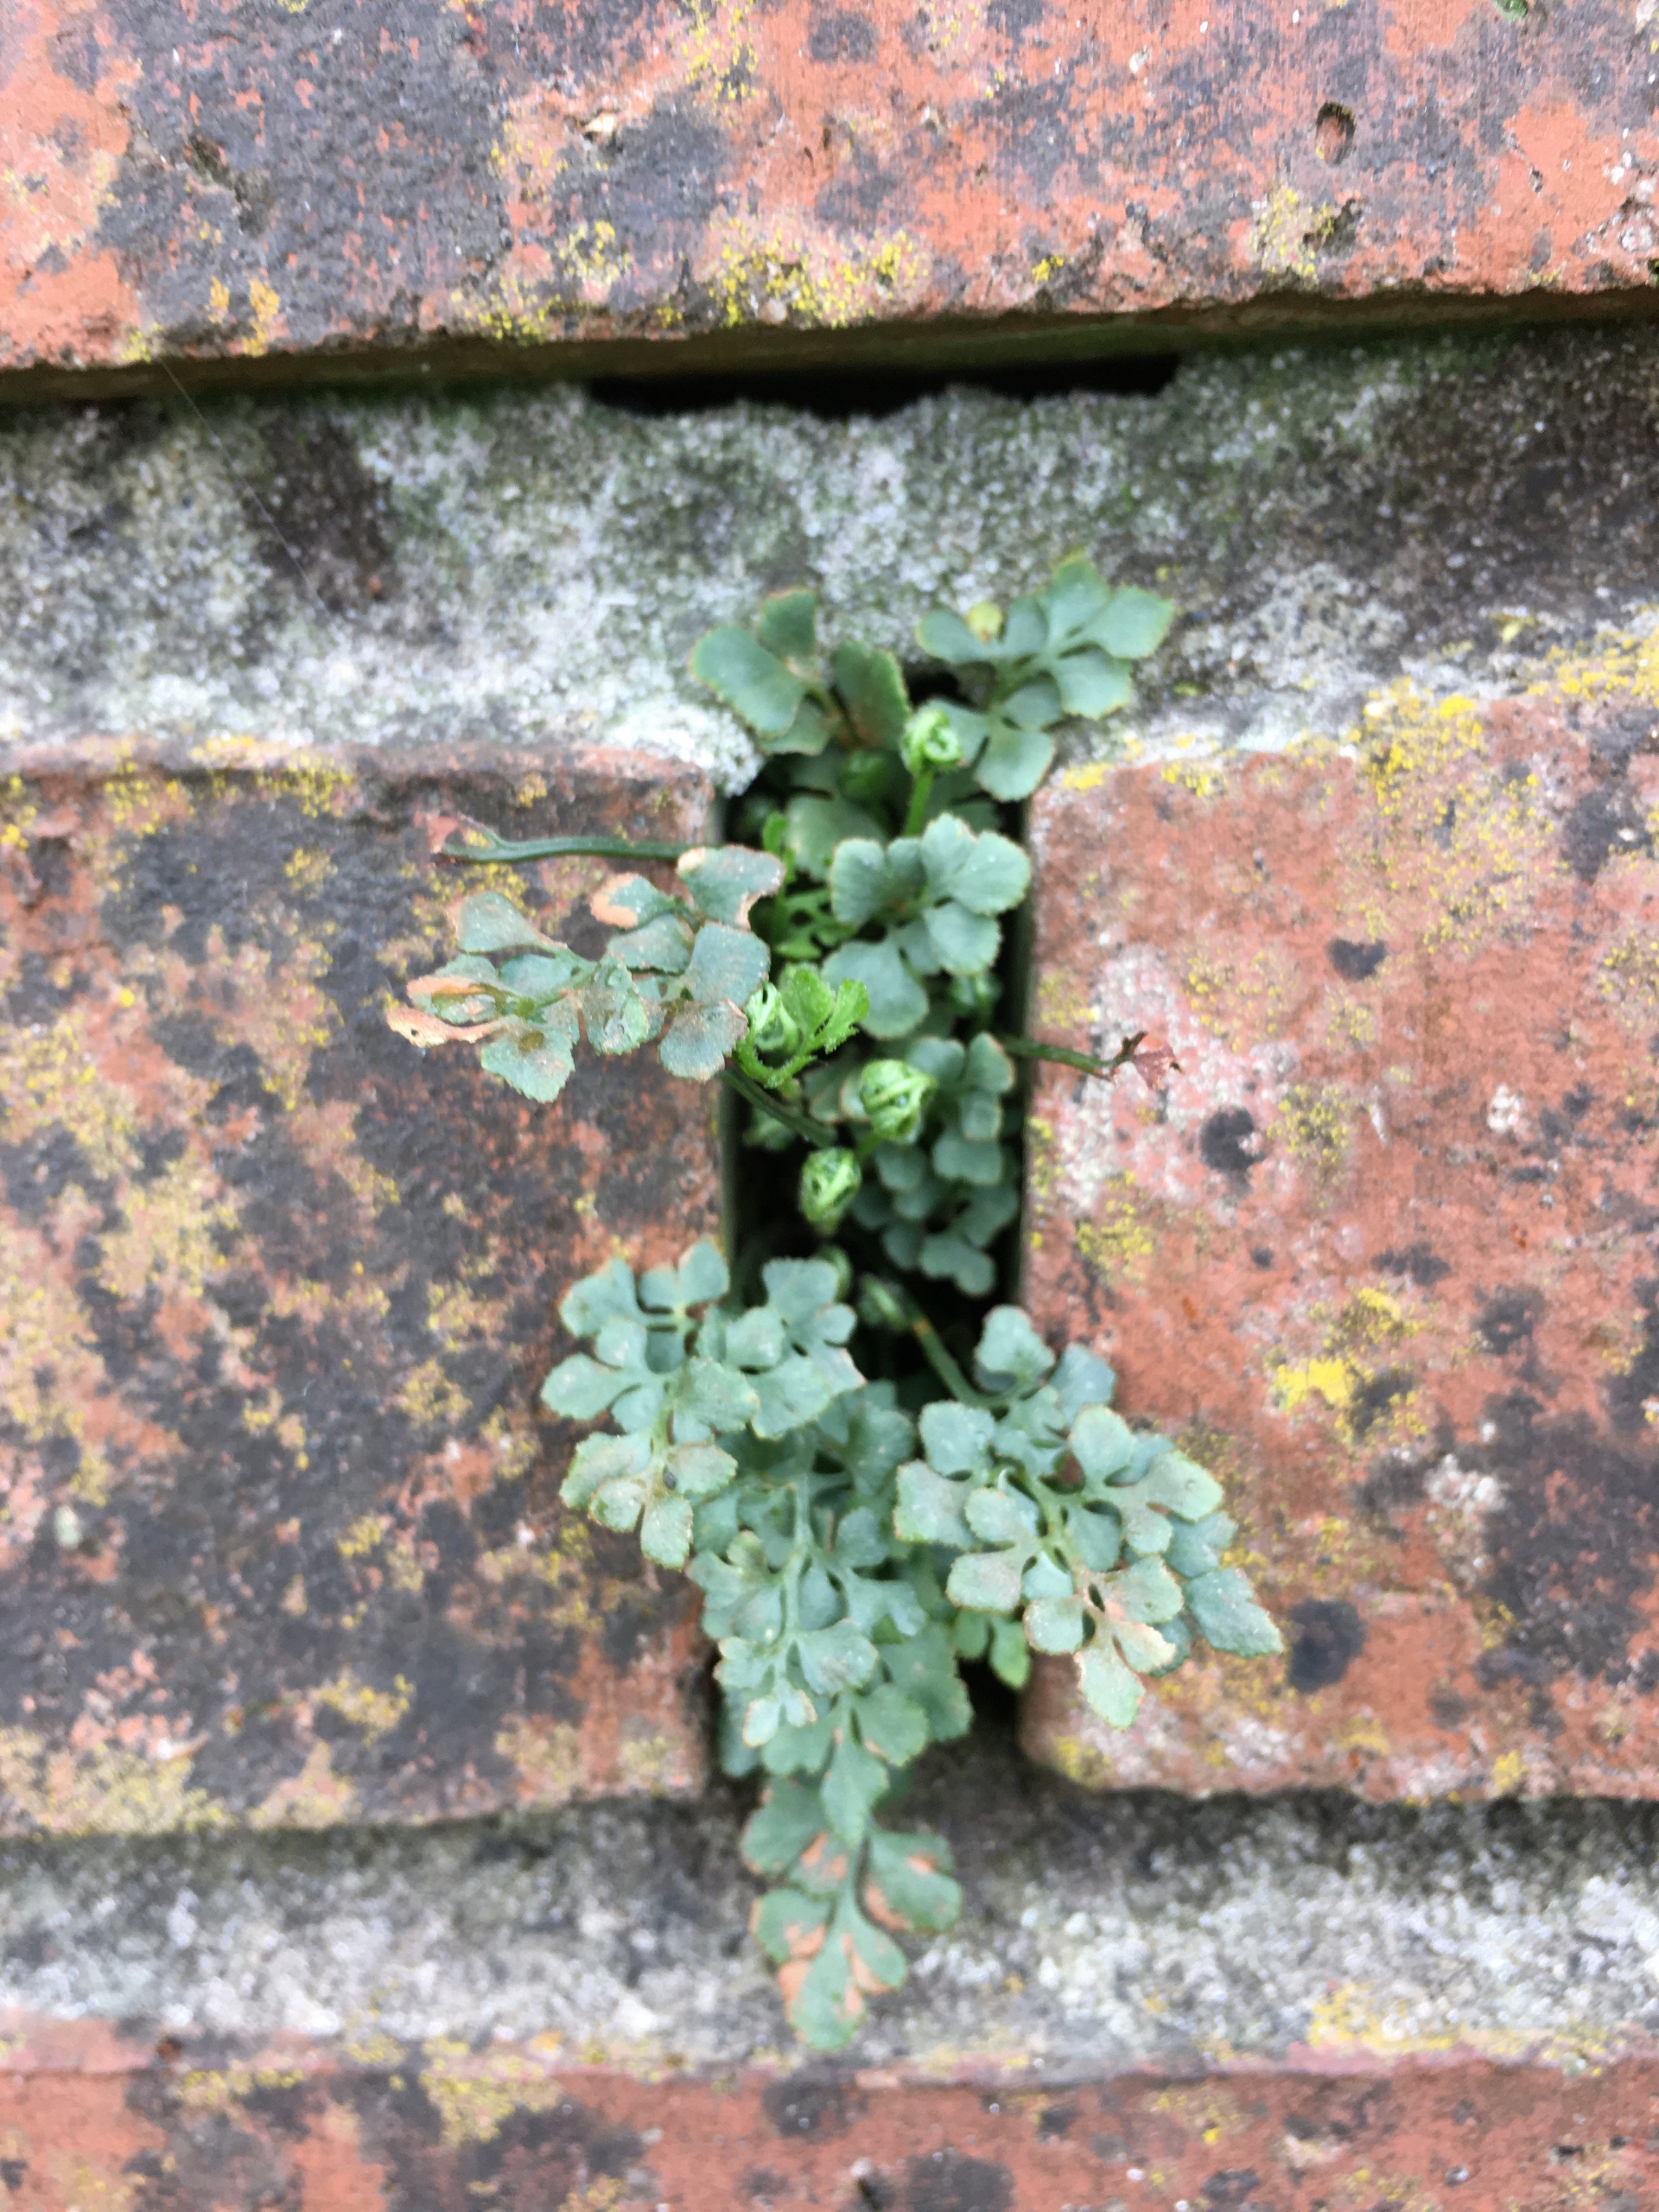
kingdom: Plantae
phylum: Tracheophyta
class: Polypodiopsida
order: Polypodiales
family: Aspleniaceae
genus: Asplenium
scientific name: Asplenium ruta-muraria
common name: Murrude
